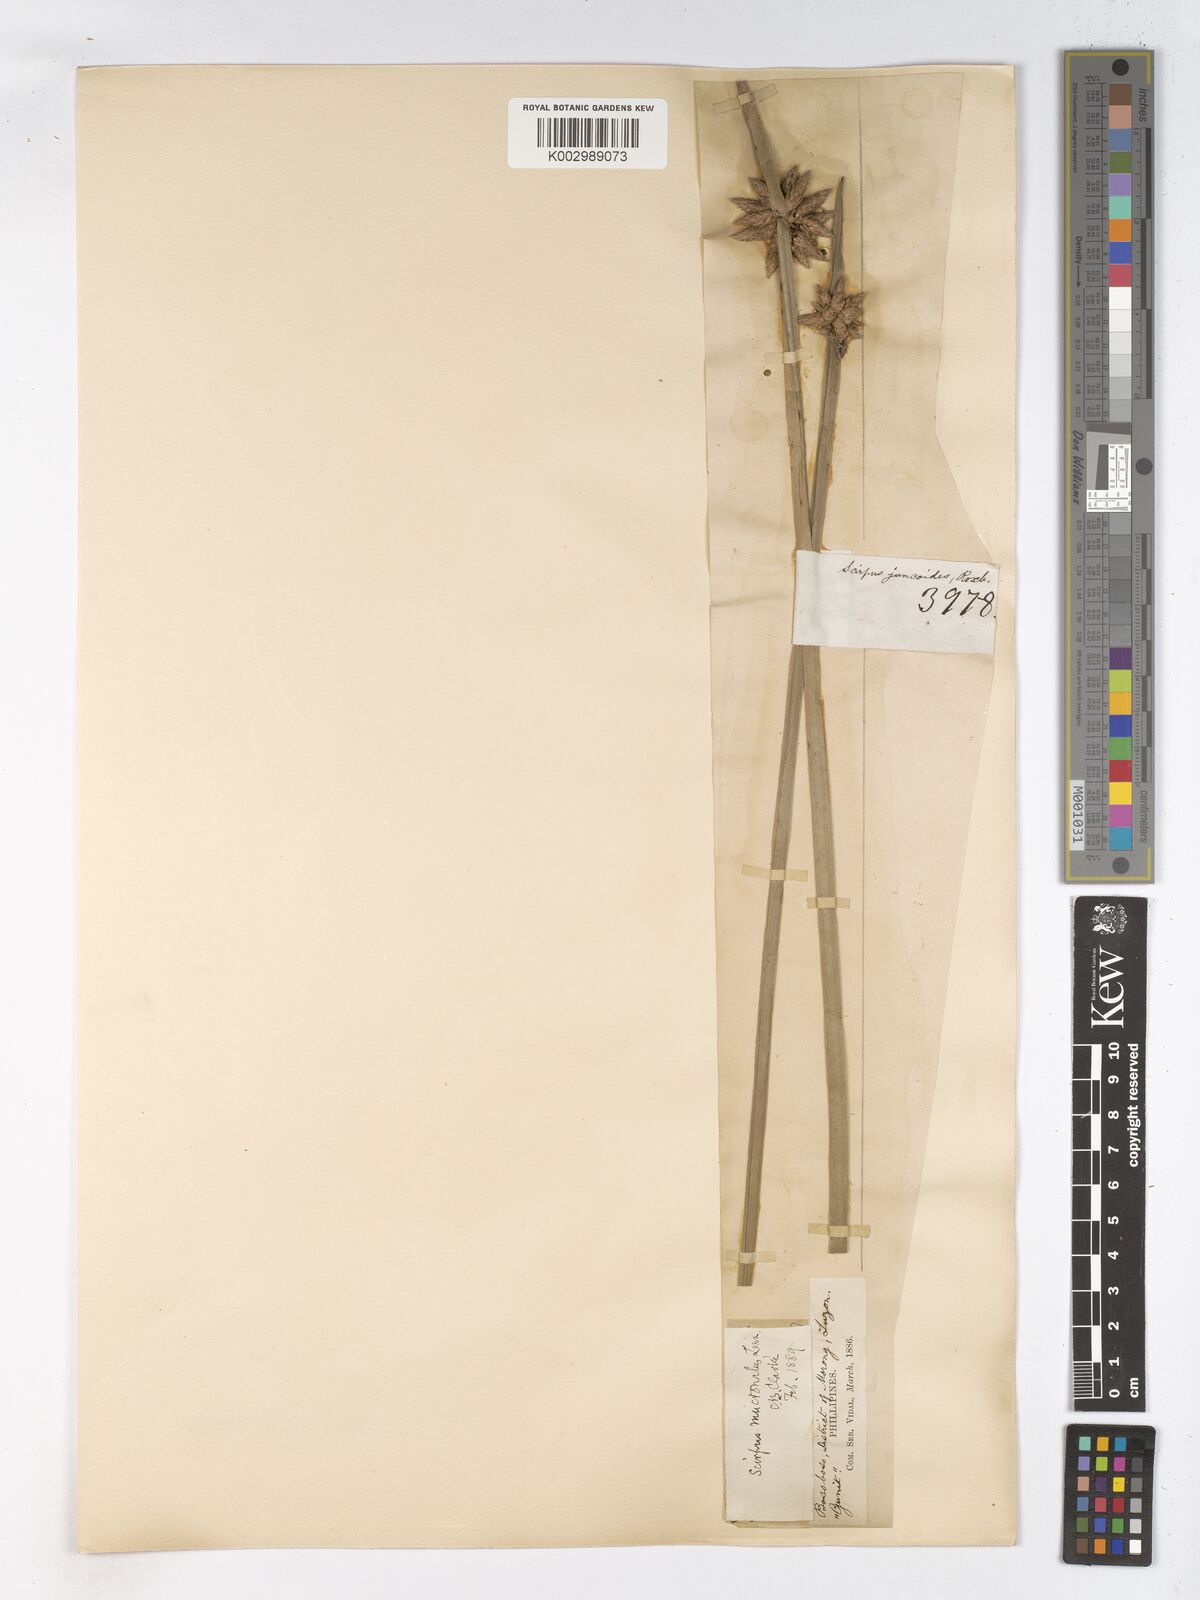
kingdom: Plantae
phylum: Tracheophyta
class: Liliopsida
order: Poales
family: Cyperaceae
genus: Schoenoplectiella
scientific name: Schoenoplectiella mucronata
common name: Bog bulrush
